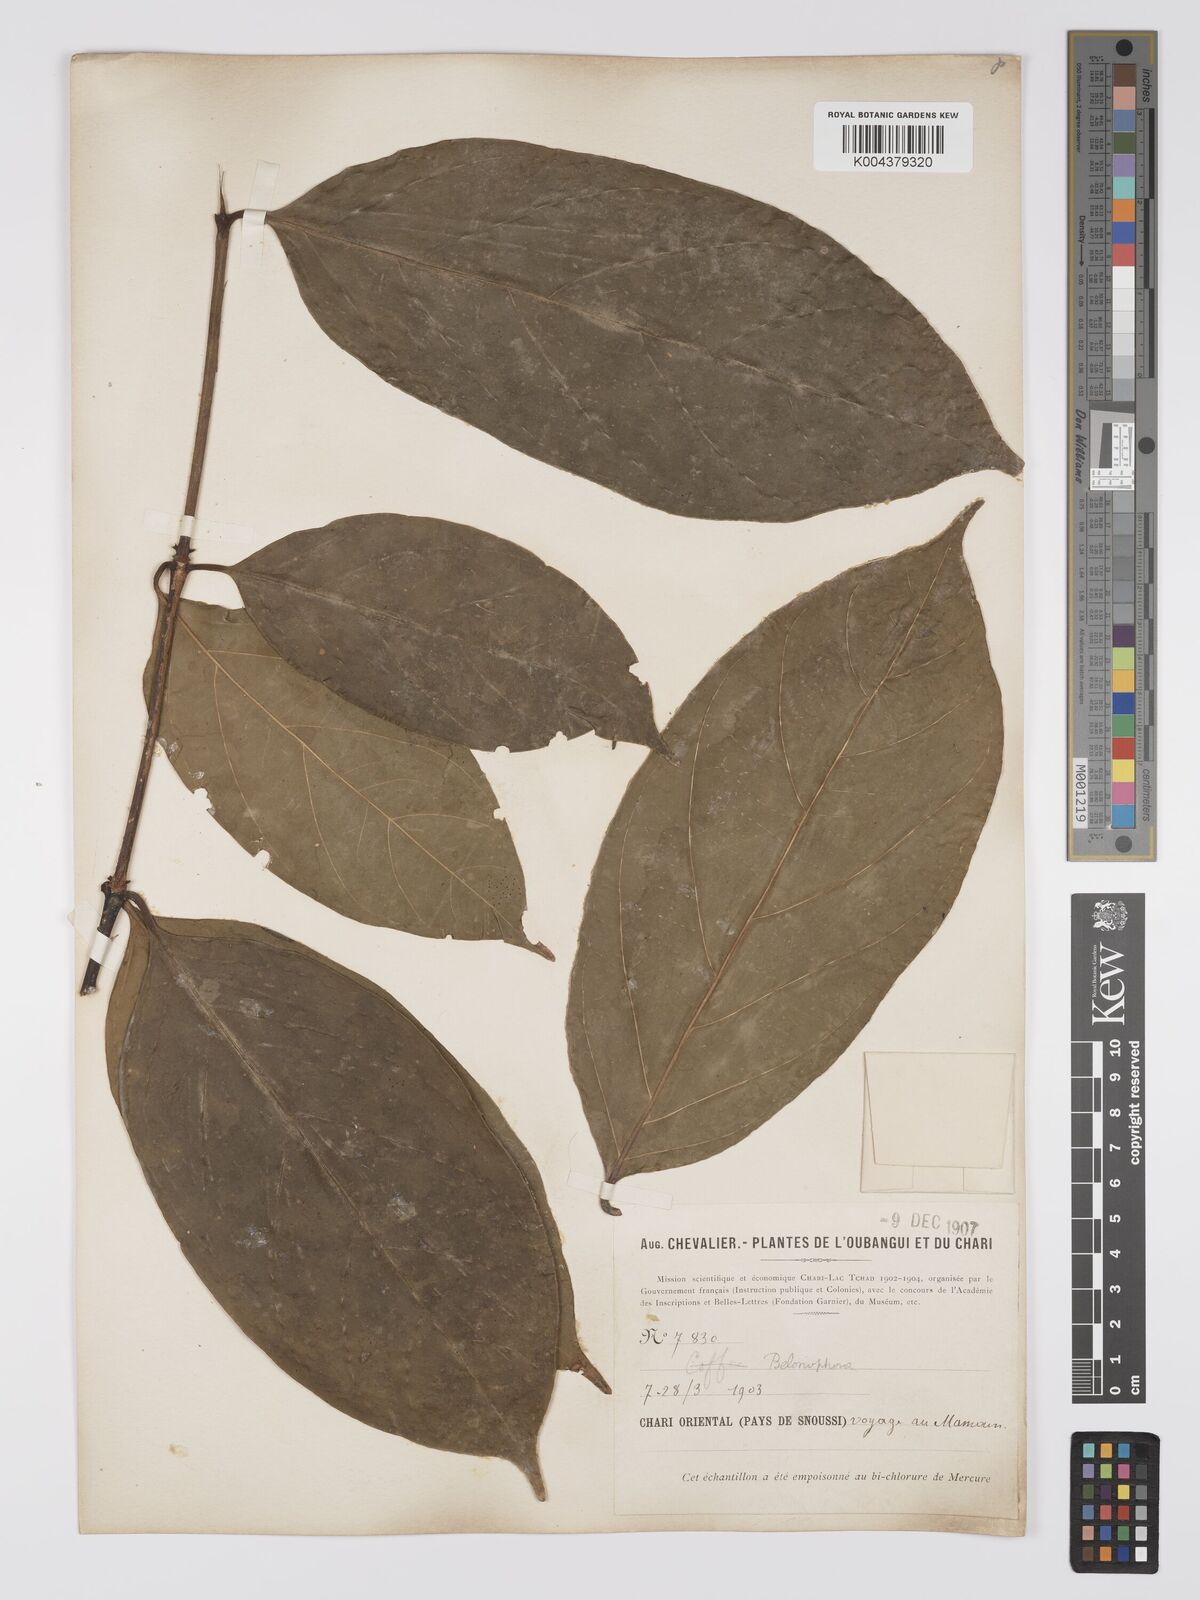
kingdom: Plantae
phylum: Tracheophyta
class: Magnoliopsida
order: Gentianales
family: Rubiaceae
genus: Belonophora
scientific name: Belonophora coffeoides
